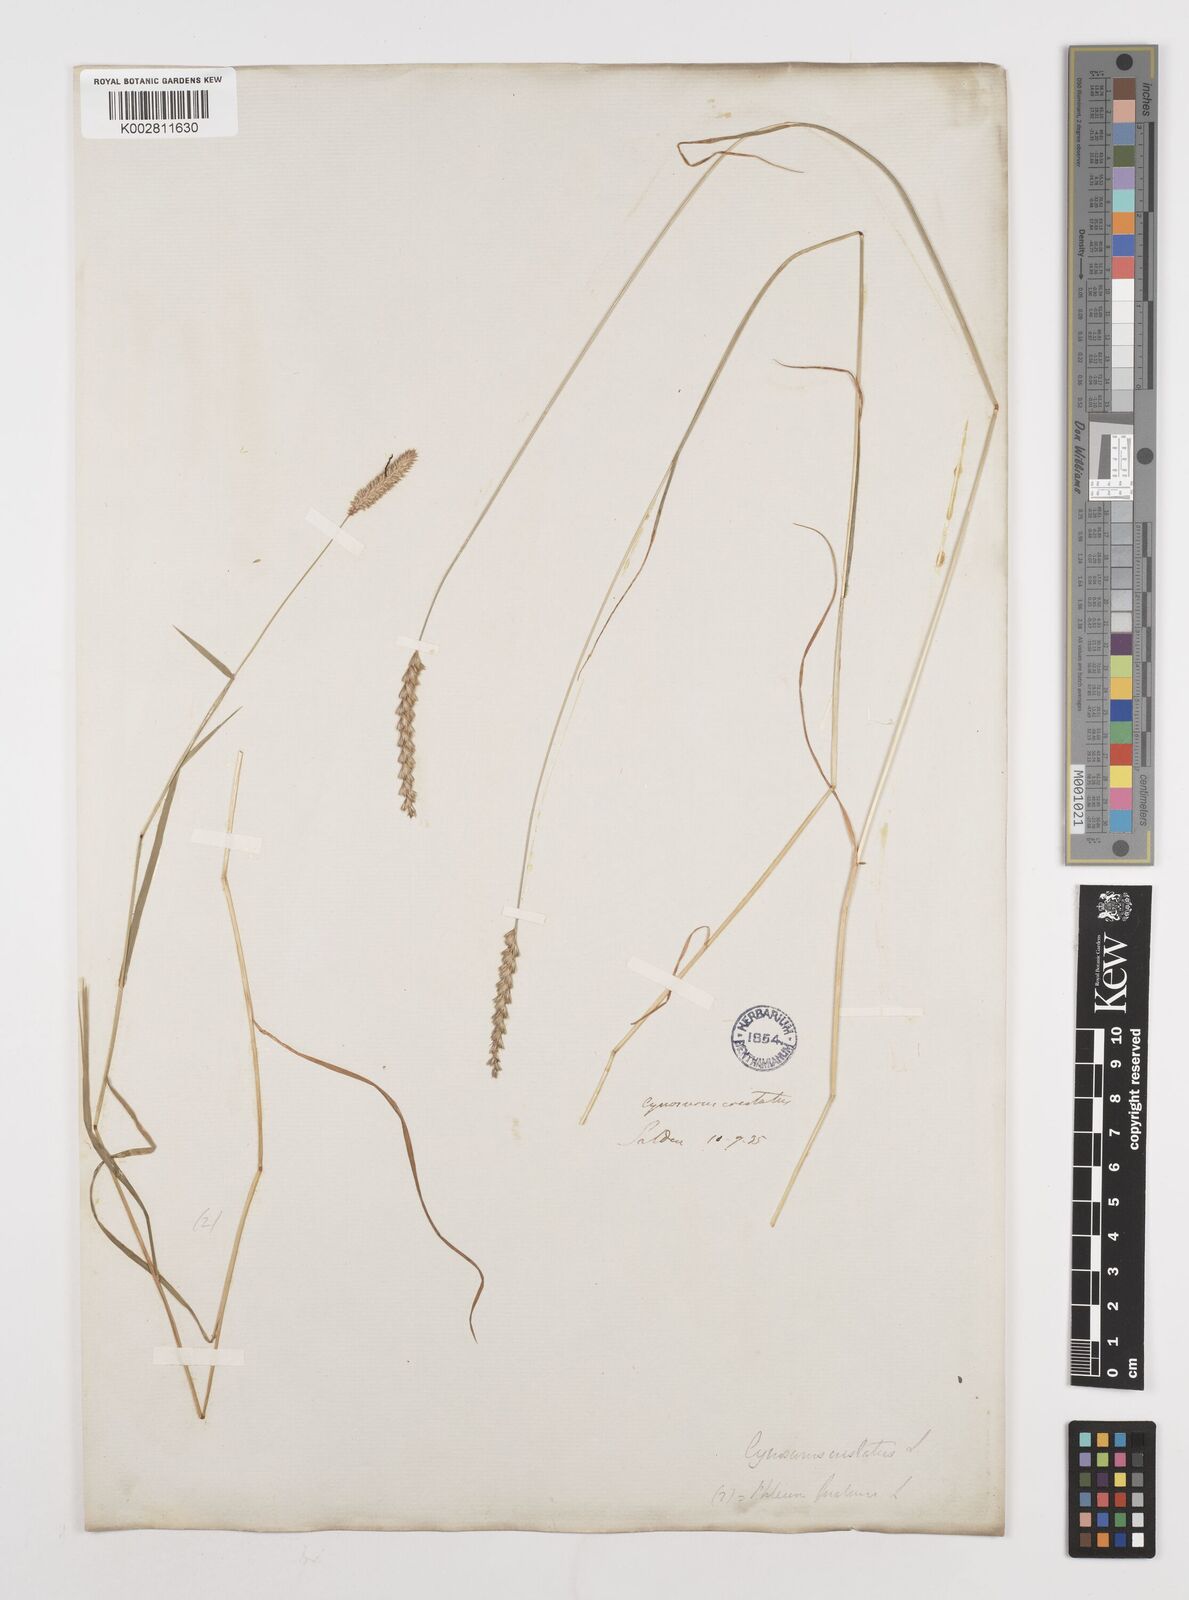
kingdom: Plantae
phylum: Tracheophyta
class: Liliopsida
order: Poales
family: Poaceae
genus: Cynosurus
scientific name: Cynosurus cristatus
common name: Crested dog's-tail
